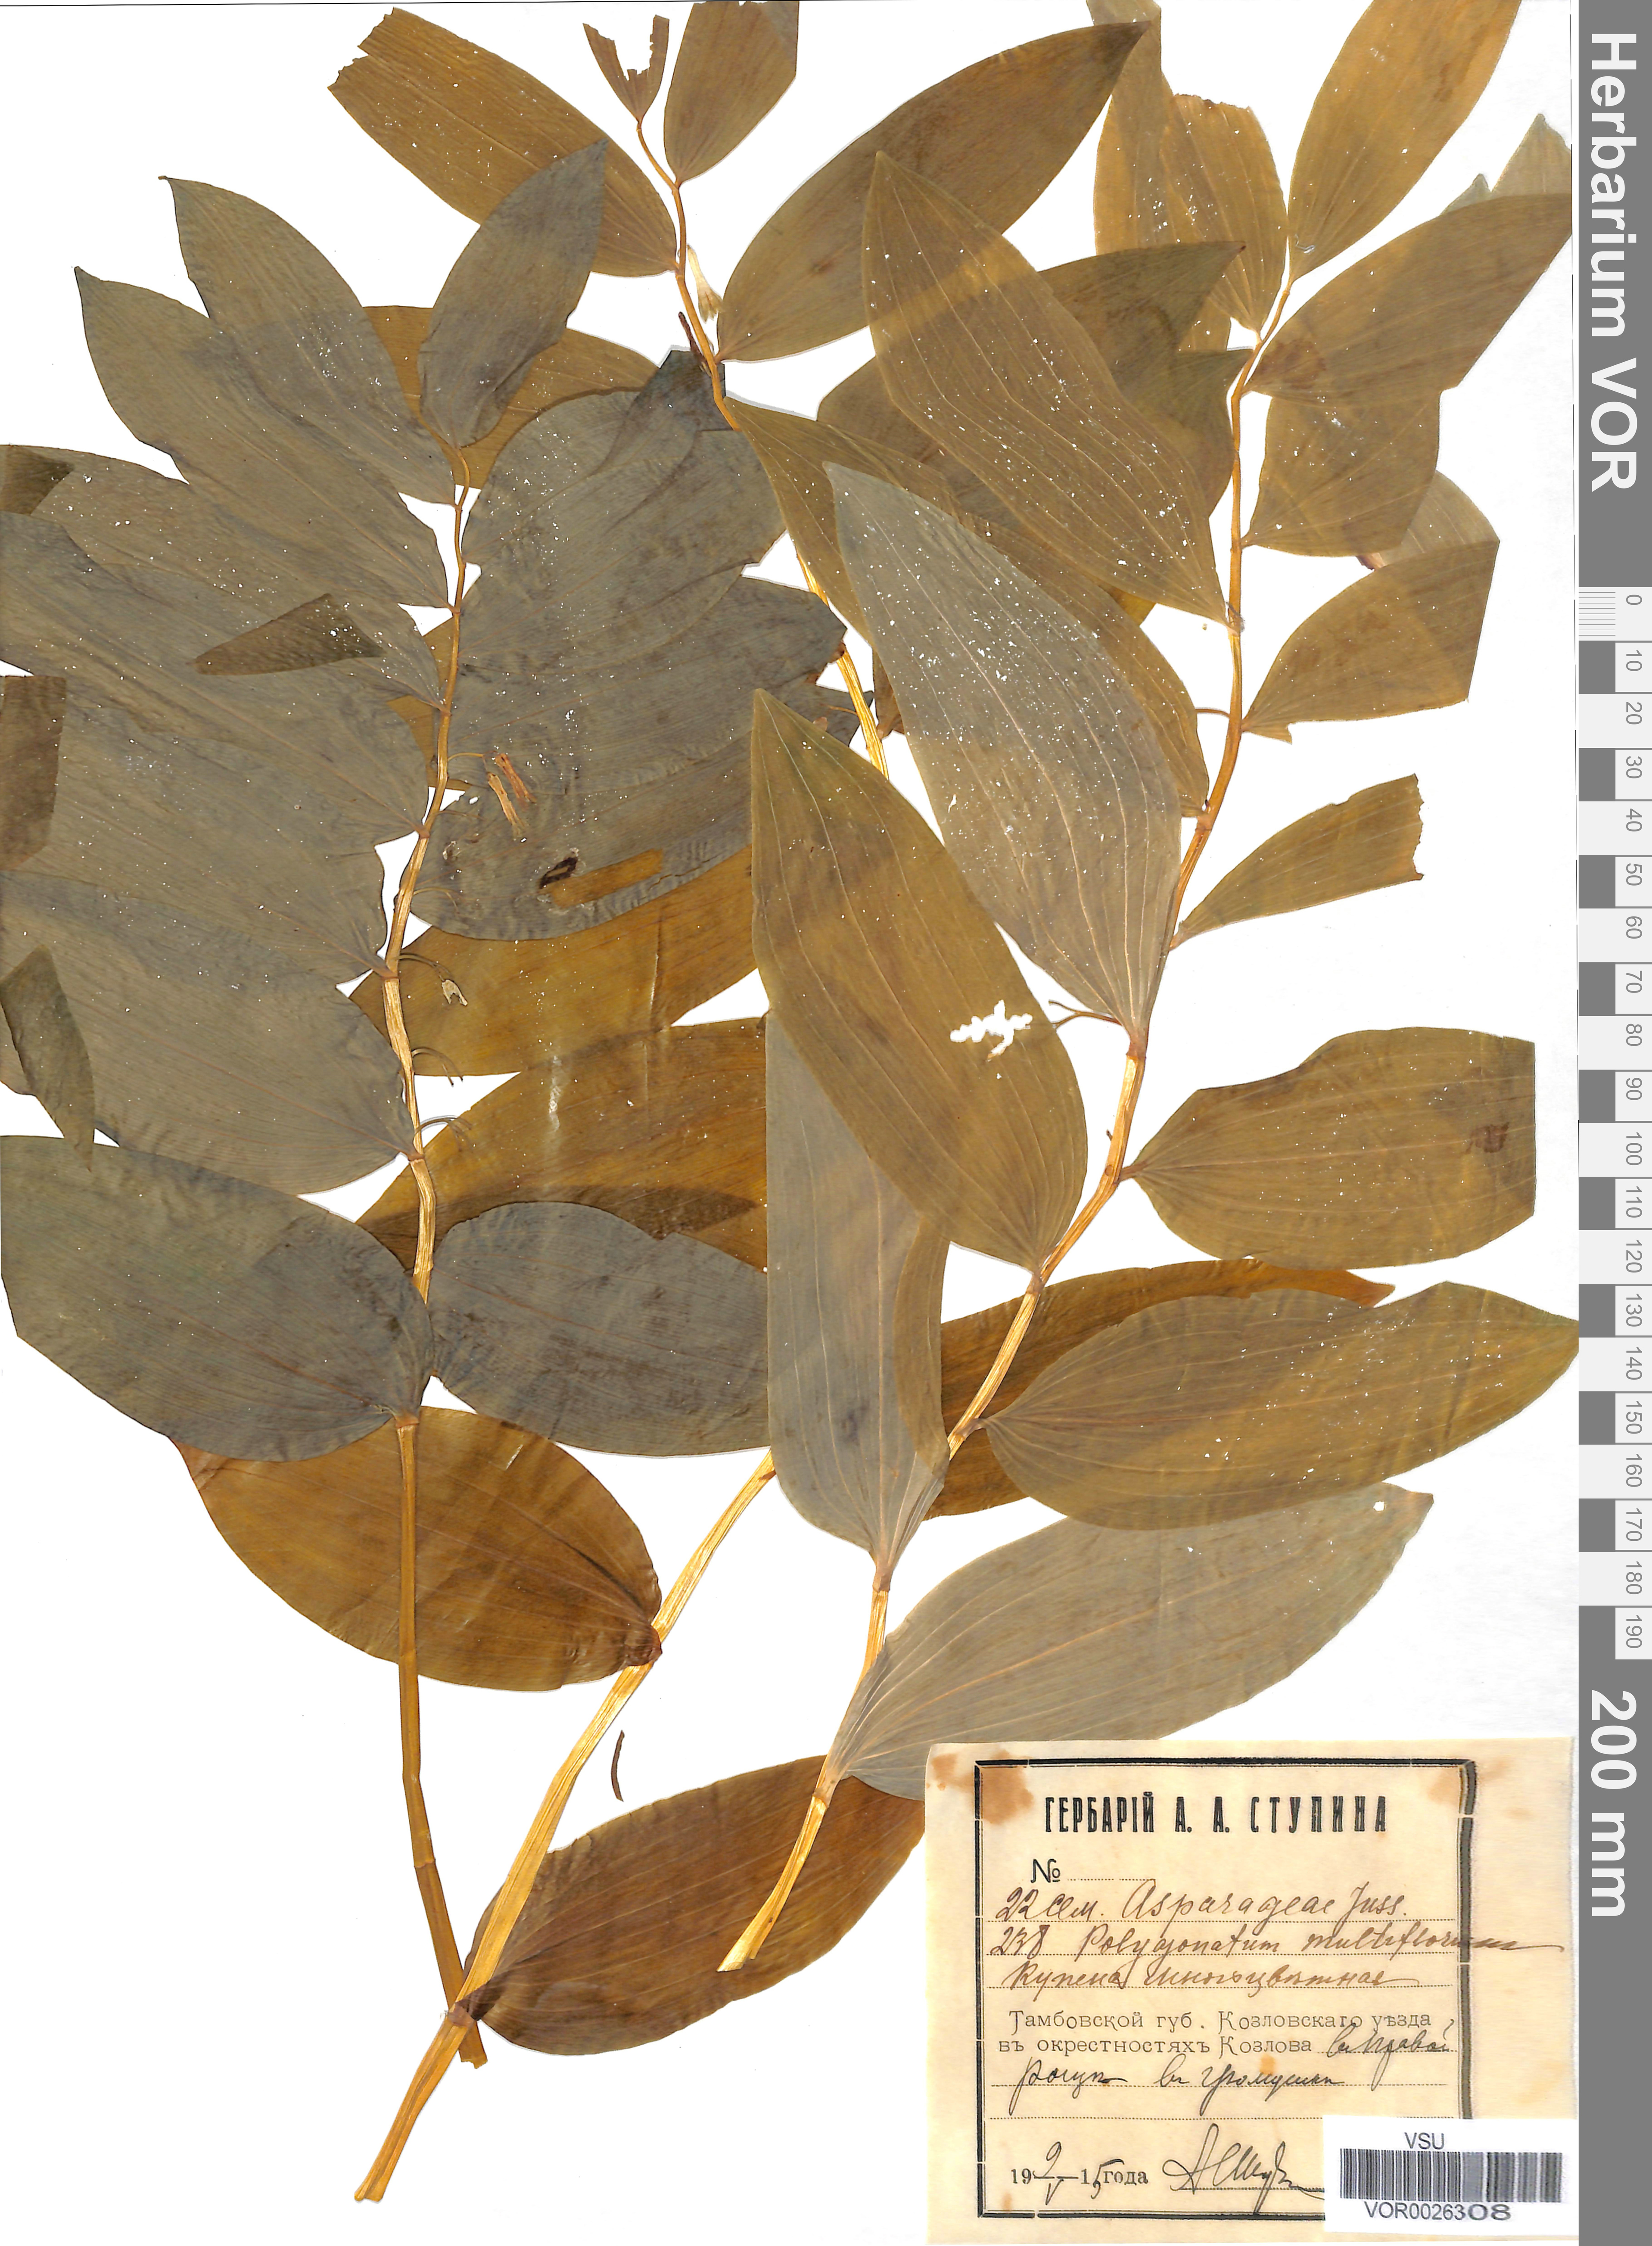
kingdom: Plantae
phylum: Tracheophyta
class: Liliopsida
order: Asparagales
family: Asparagaceae
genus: Polygonatum
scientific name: Polygonatum multiflorum
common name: Solomon's-seal
